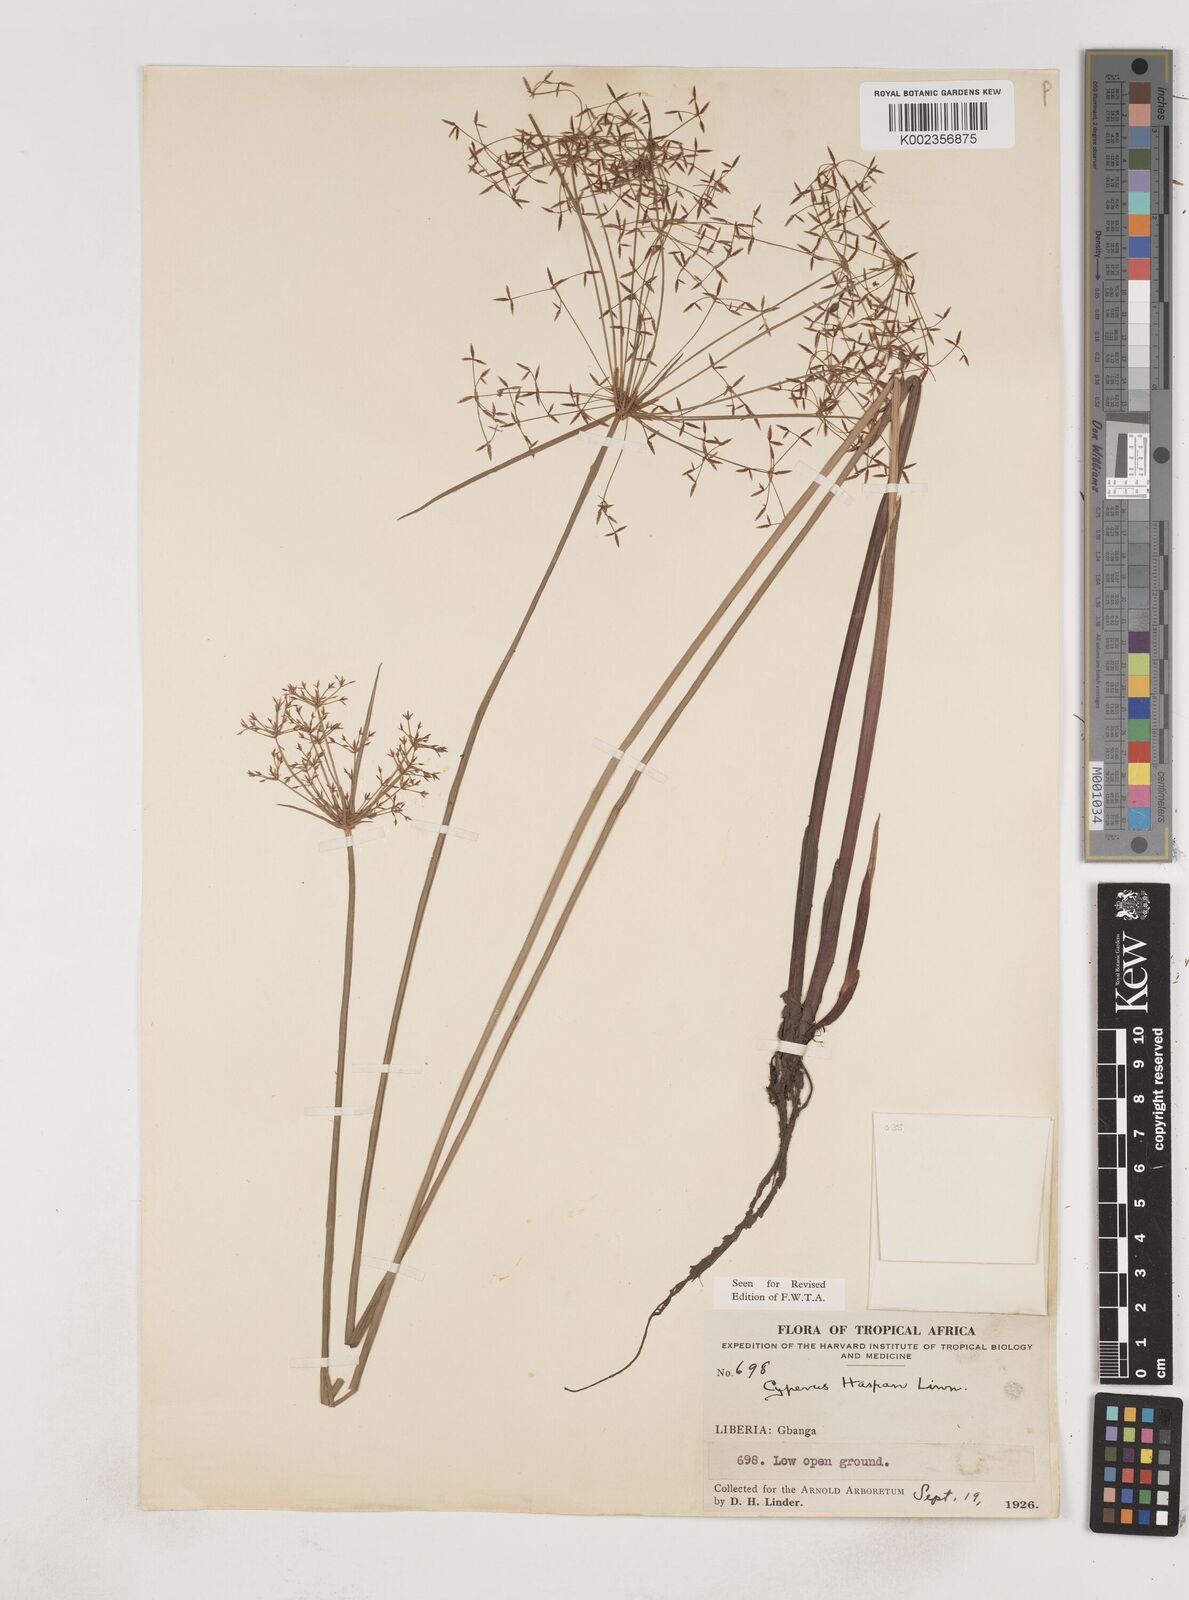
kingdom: Plantae
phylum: Tracheophyta
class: Liliopsida
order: Poales
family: Cyperaceae
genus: Cyperus
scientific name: Cyperus haspan
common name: Haspan flatsedge
